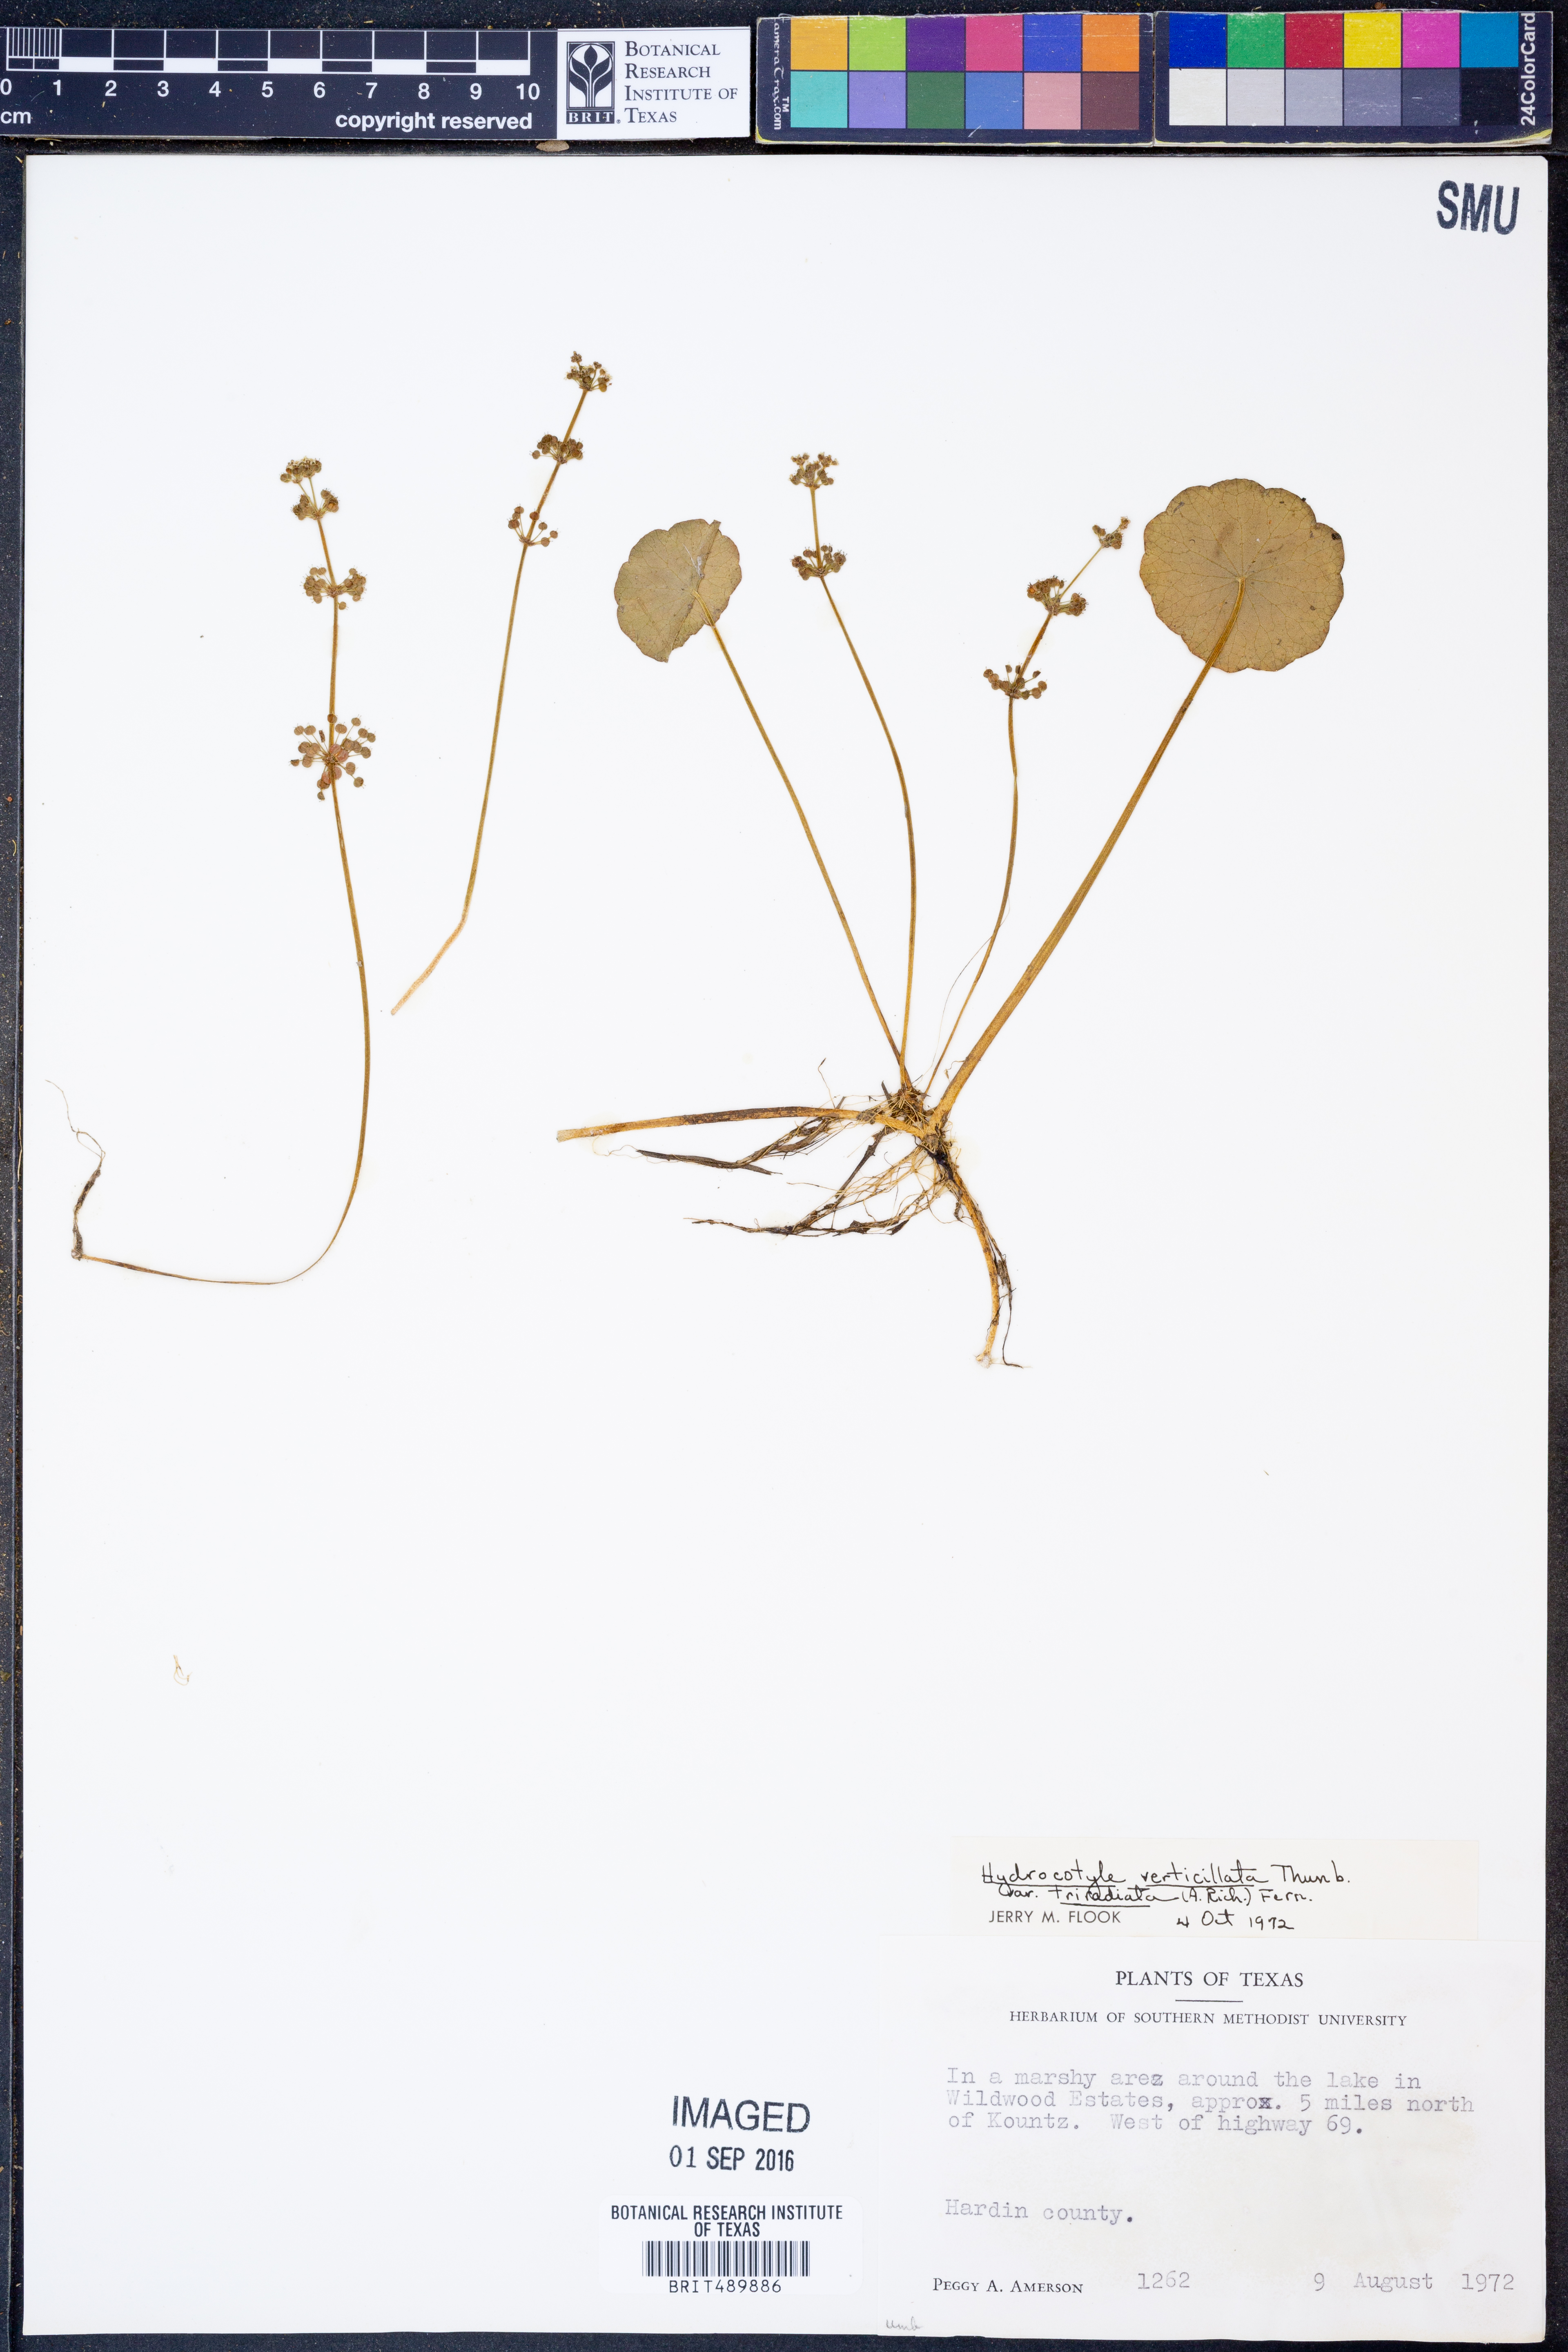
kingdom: Plantae
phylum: Tracheophyta
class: Magnoliopsida
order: Apiales
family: Araliaceae
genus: Hydrocotyle
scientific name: Hydrocotyle bonariensis
